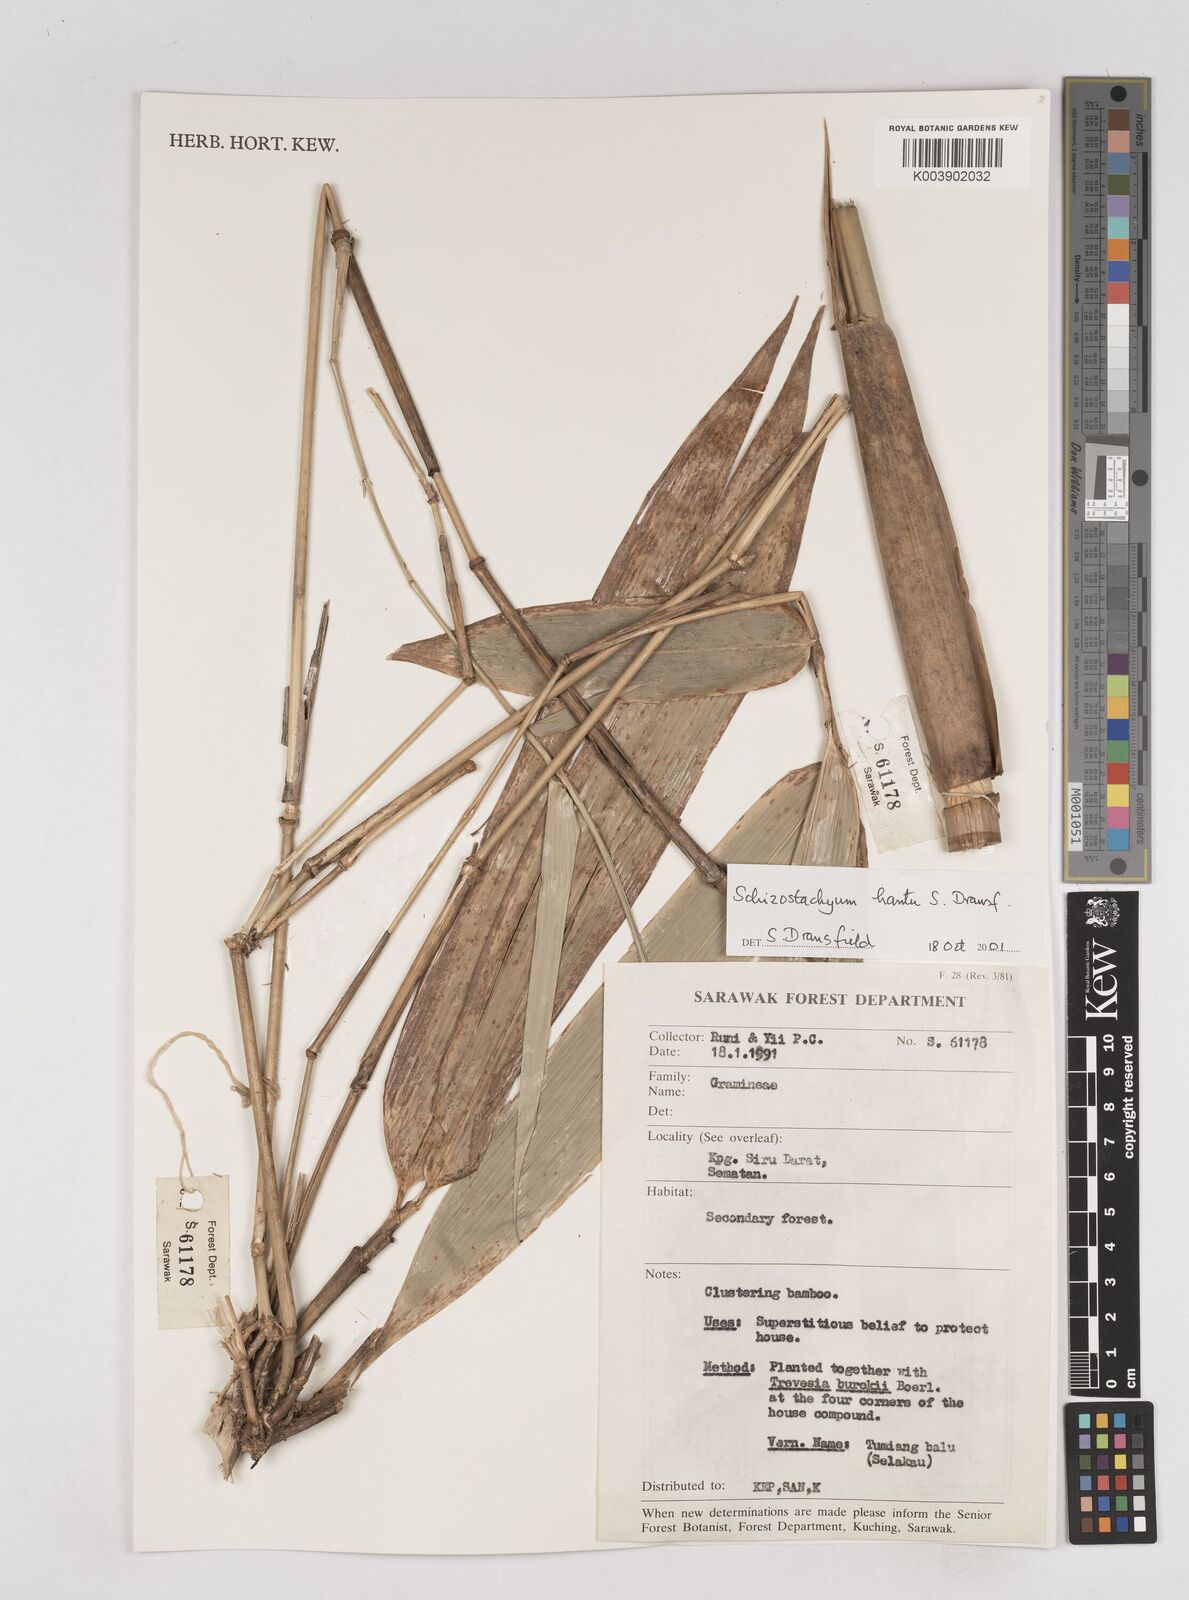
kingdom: Plantae
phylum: Tracheophyta
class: Liliopsida
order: Poales
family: Poaceae
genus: Schizostachyum
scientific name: Schizostachyum hantu
